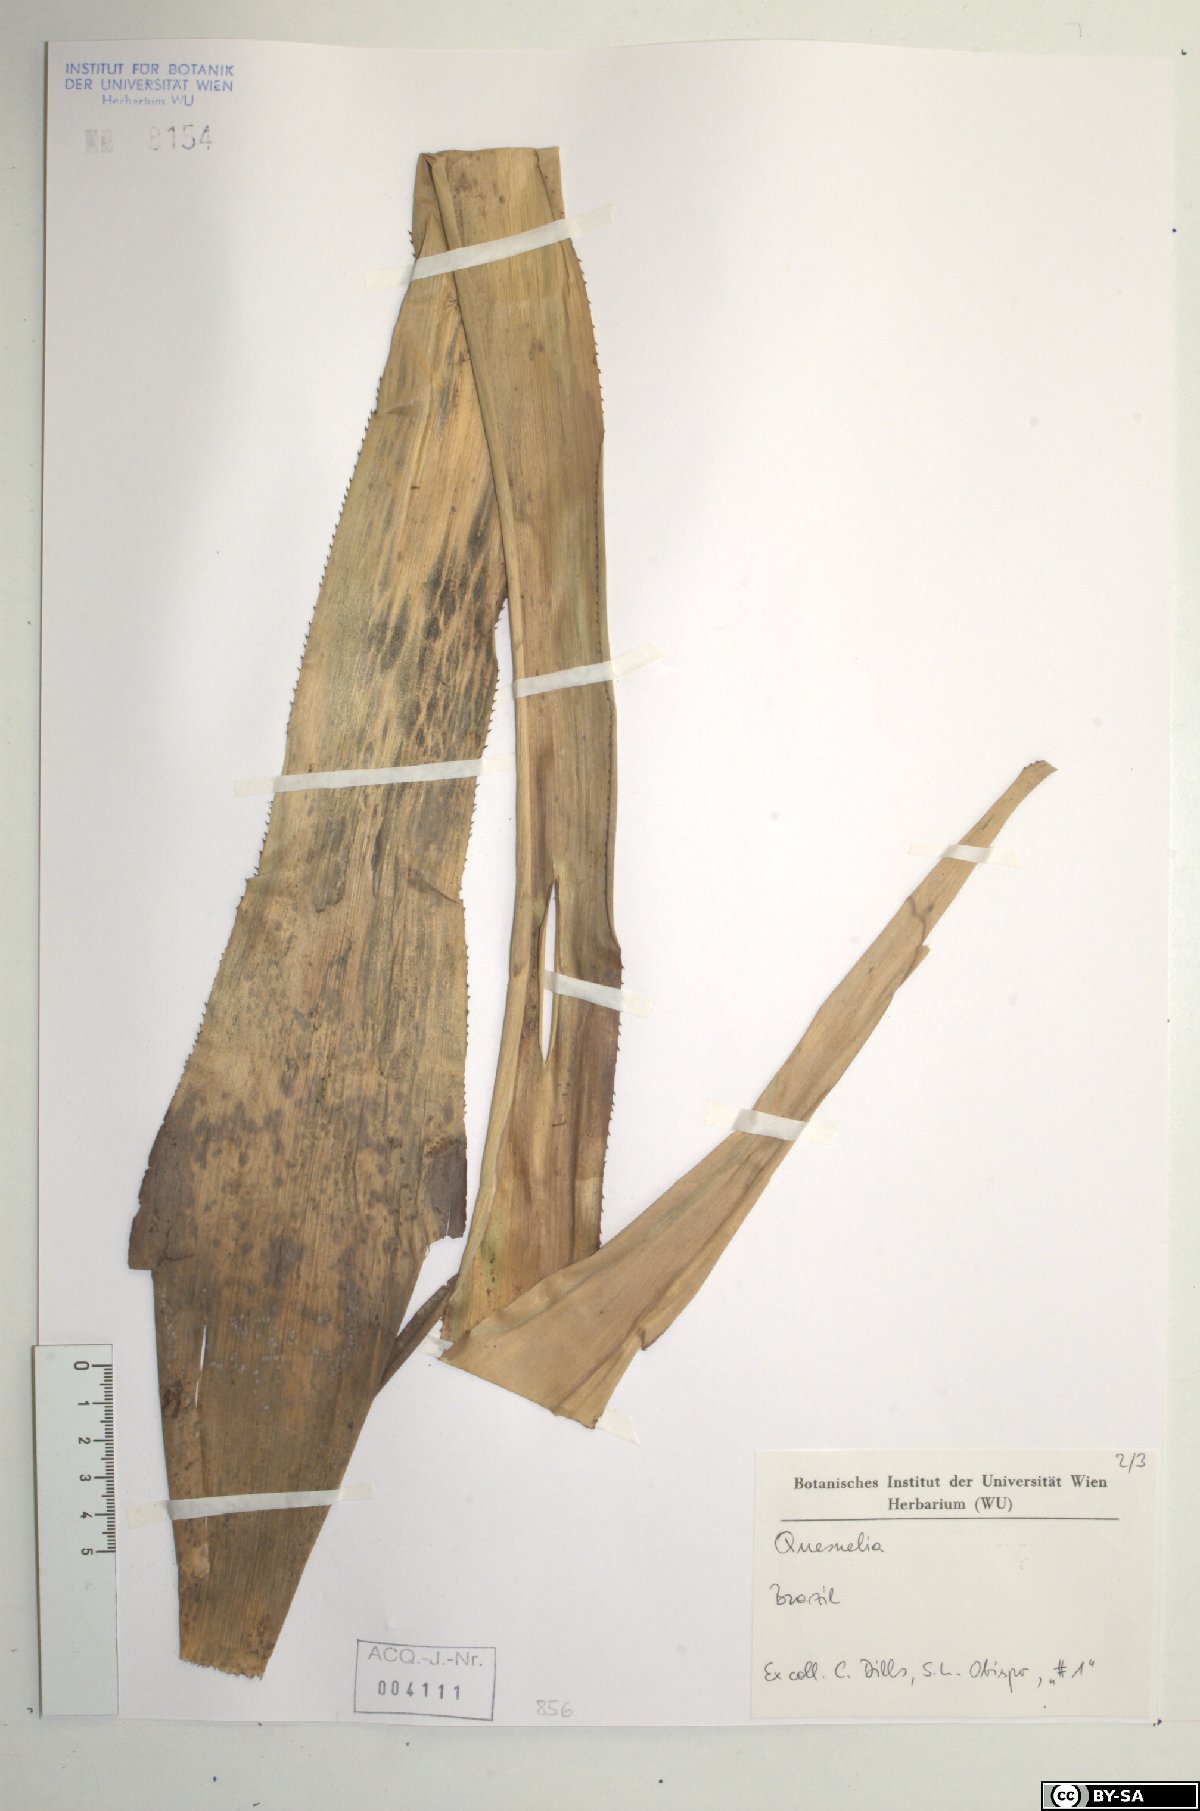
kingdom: Plantae
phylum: Tracheophyta
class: Liliopsida
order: Poales
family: Bromeliaceae
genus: Quesnelia
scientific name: Quesnelia
